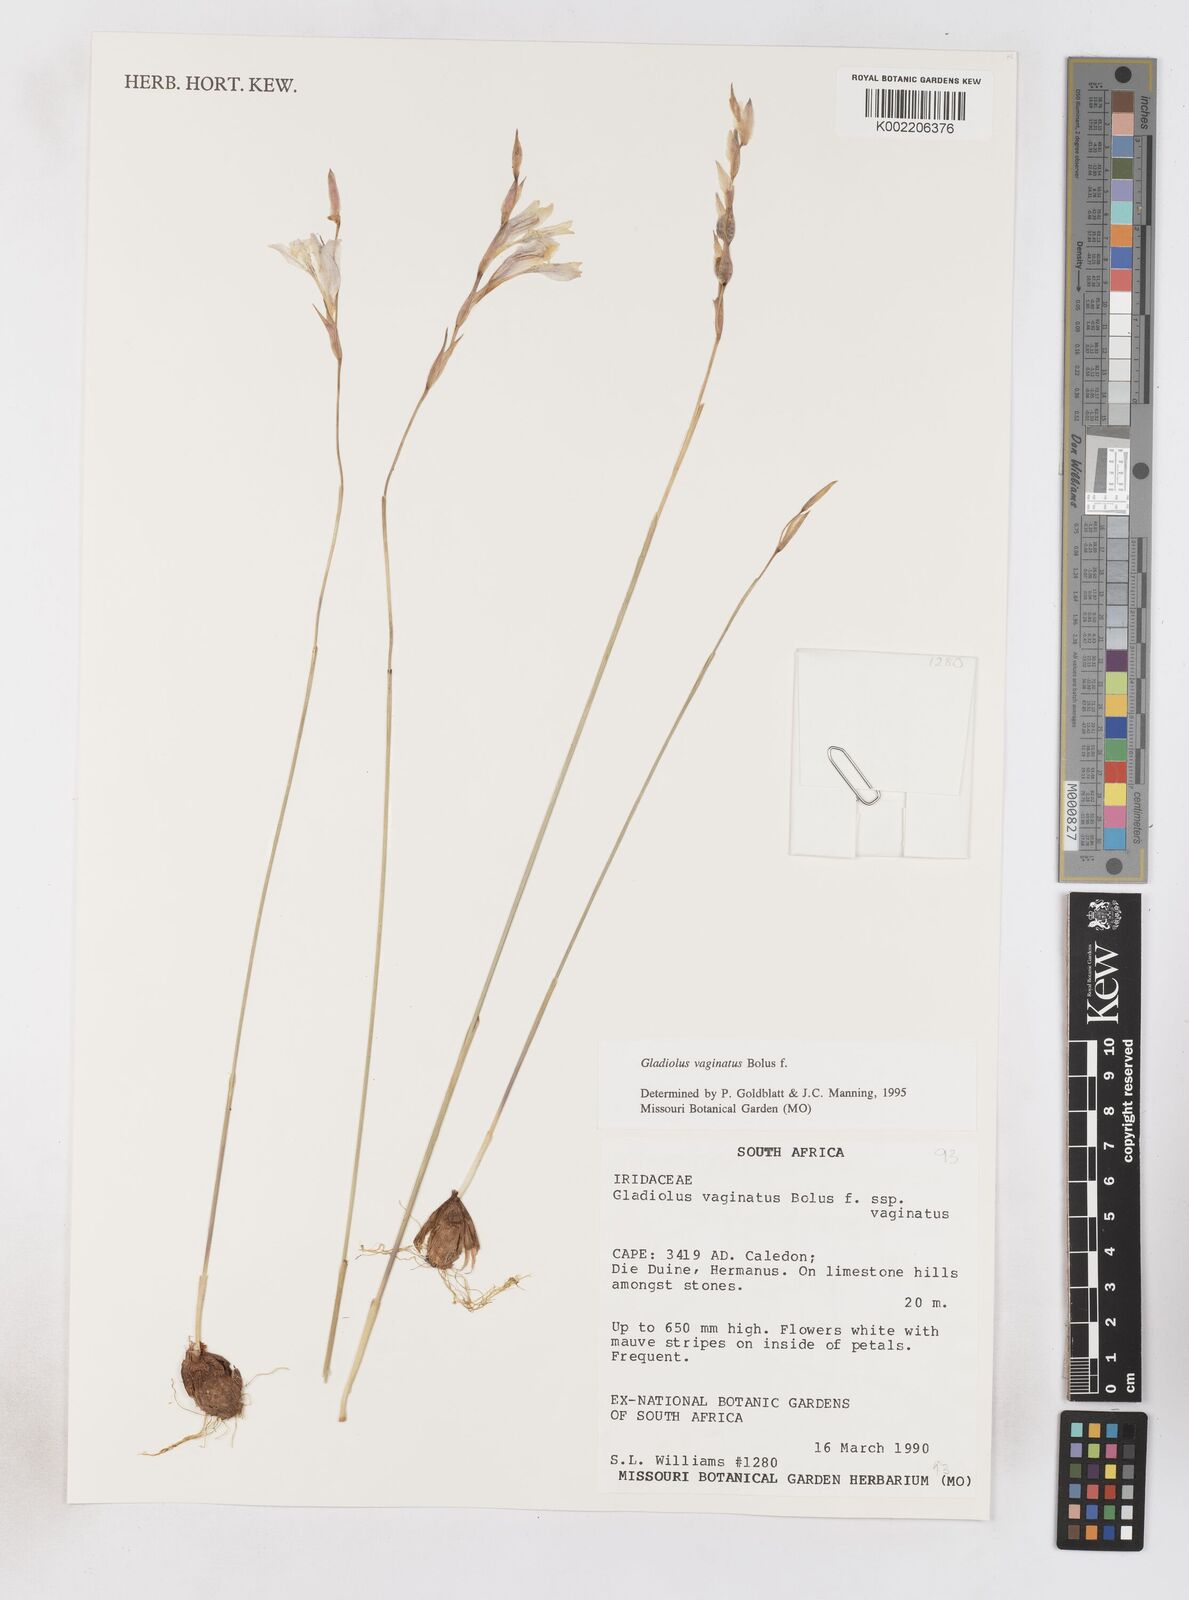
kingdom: Plantae
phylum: Tracheophyta
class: Liliopsida
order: Asparagales
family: Iridaceae
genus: Gladiolus
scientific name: Gladiolus vaginatus
